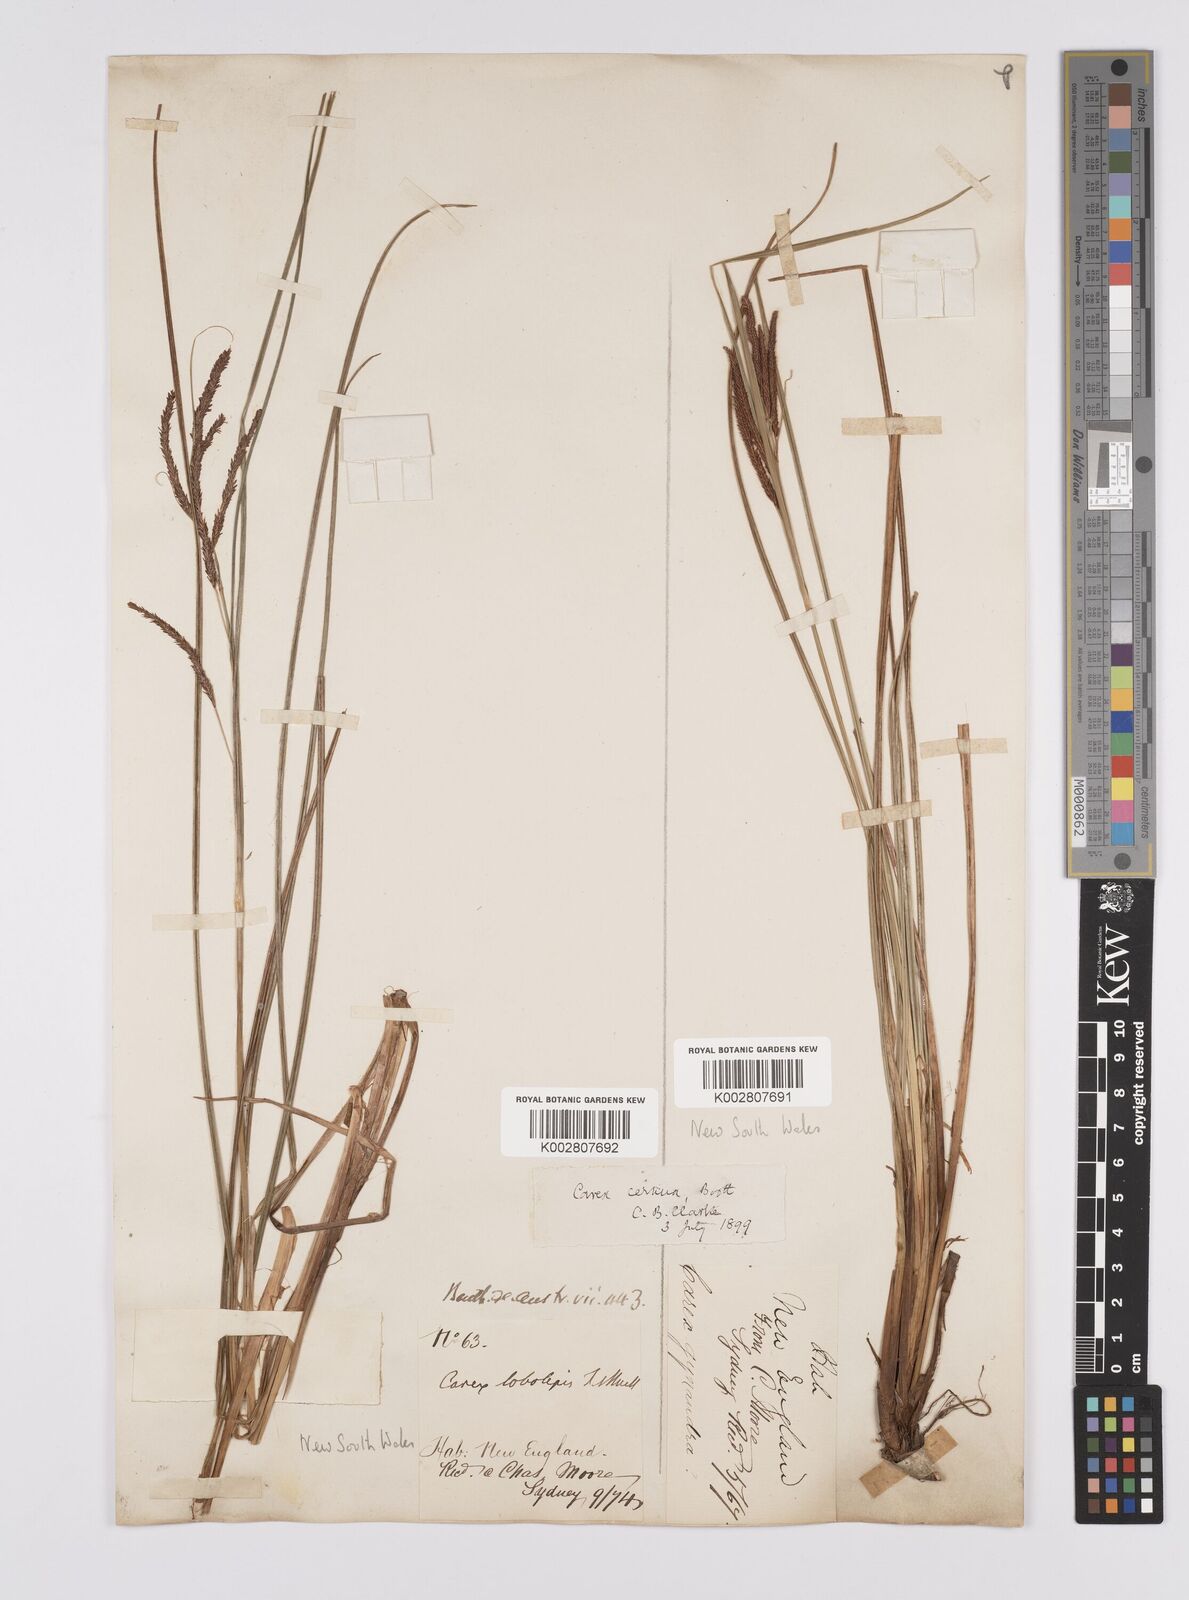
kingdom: Plantae
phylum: Tracheophyta
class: Liliopsida
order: Poales
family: Cyperaceae
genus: Carex
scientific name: Carex lobolepis
